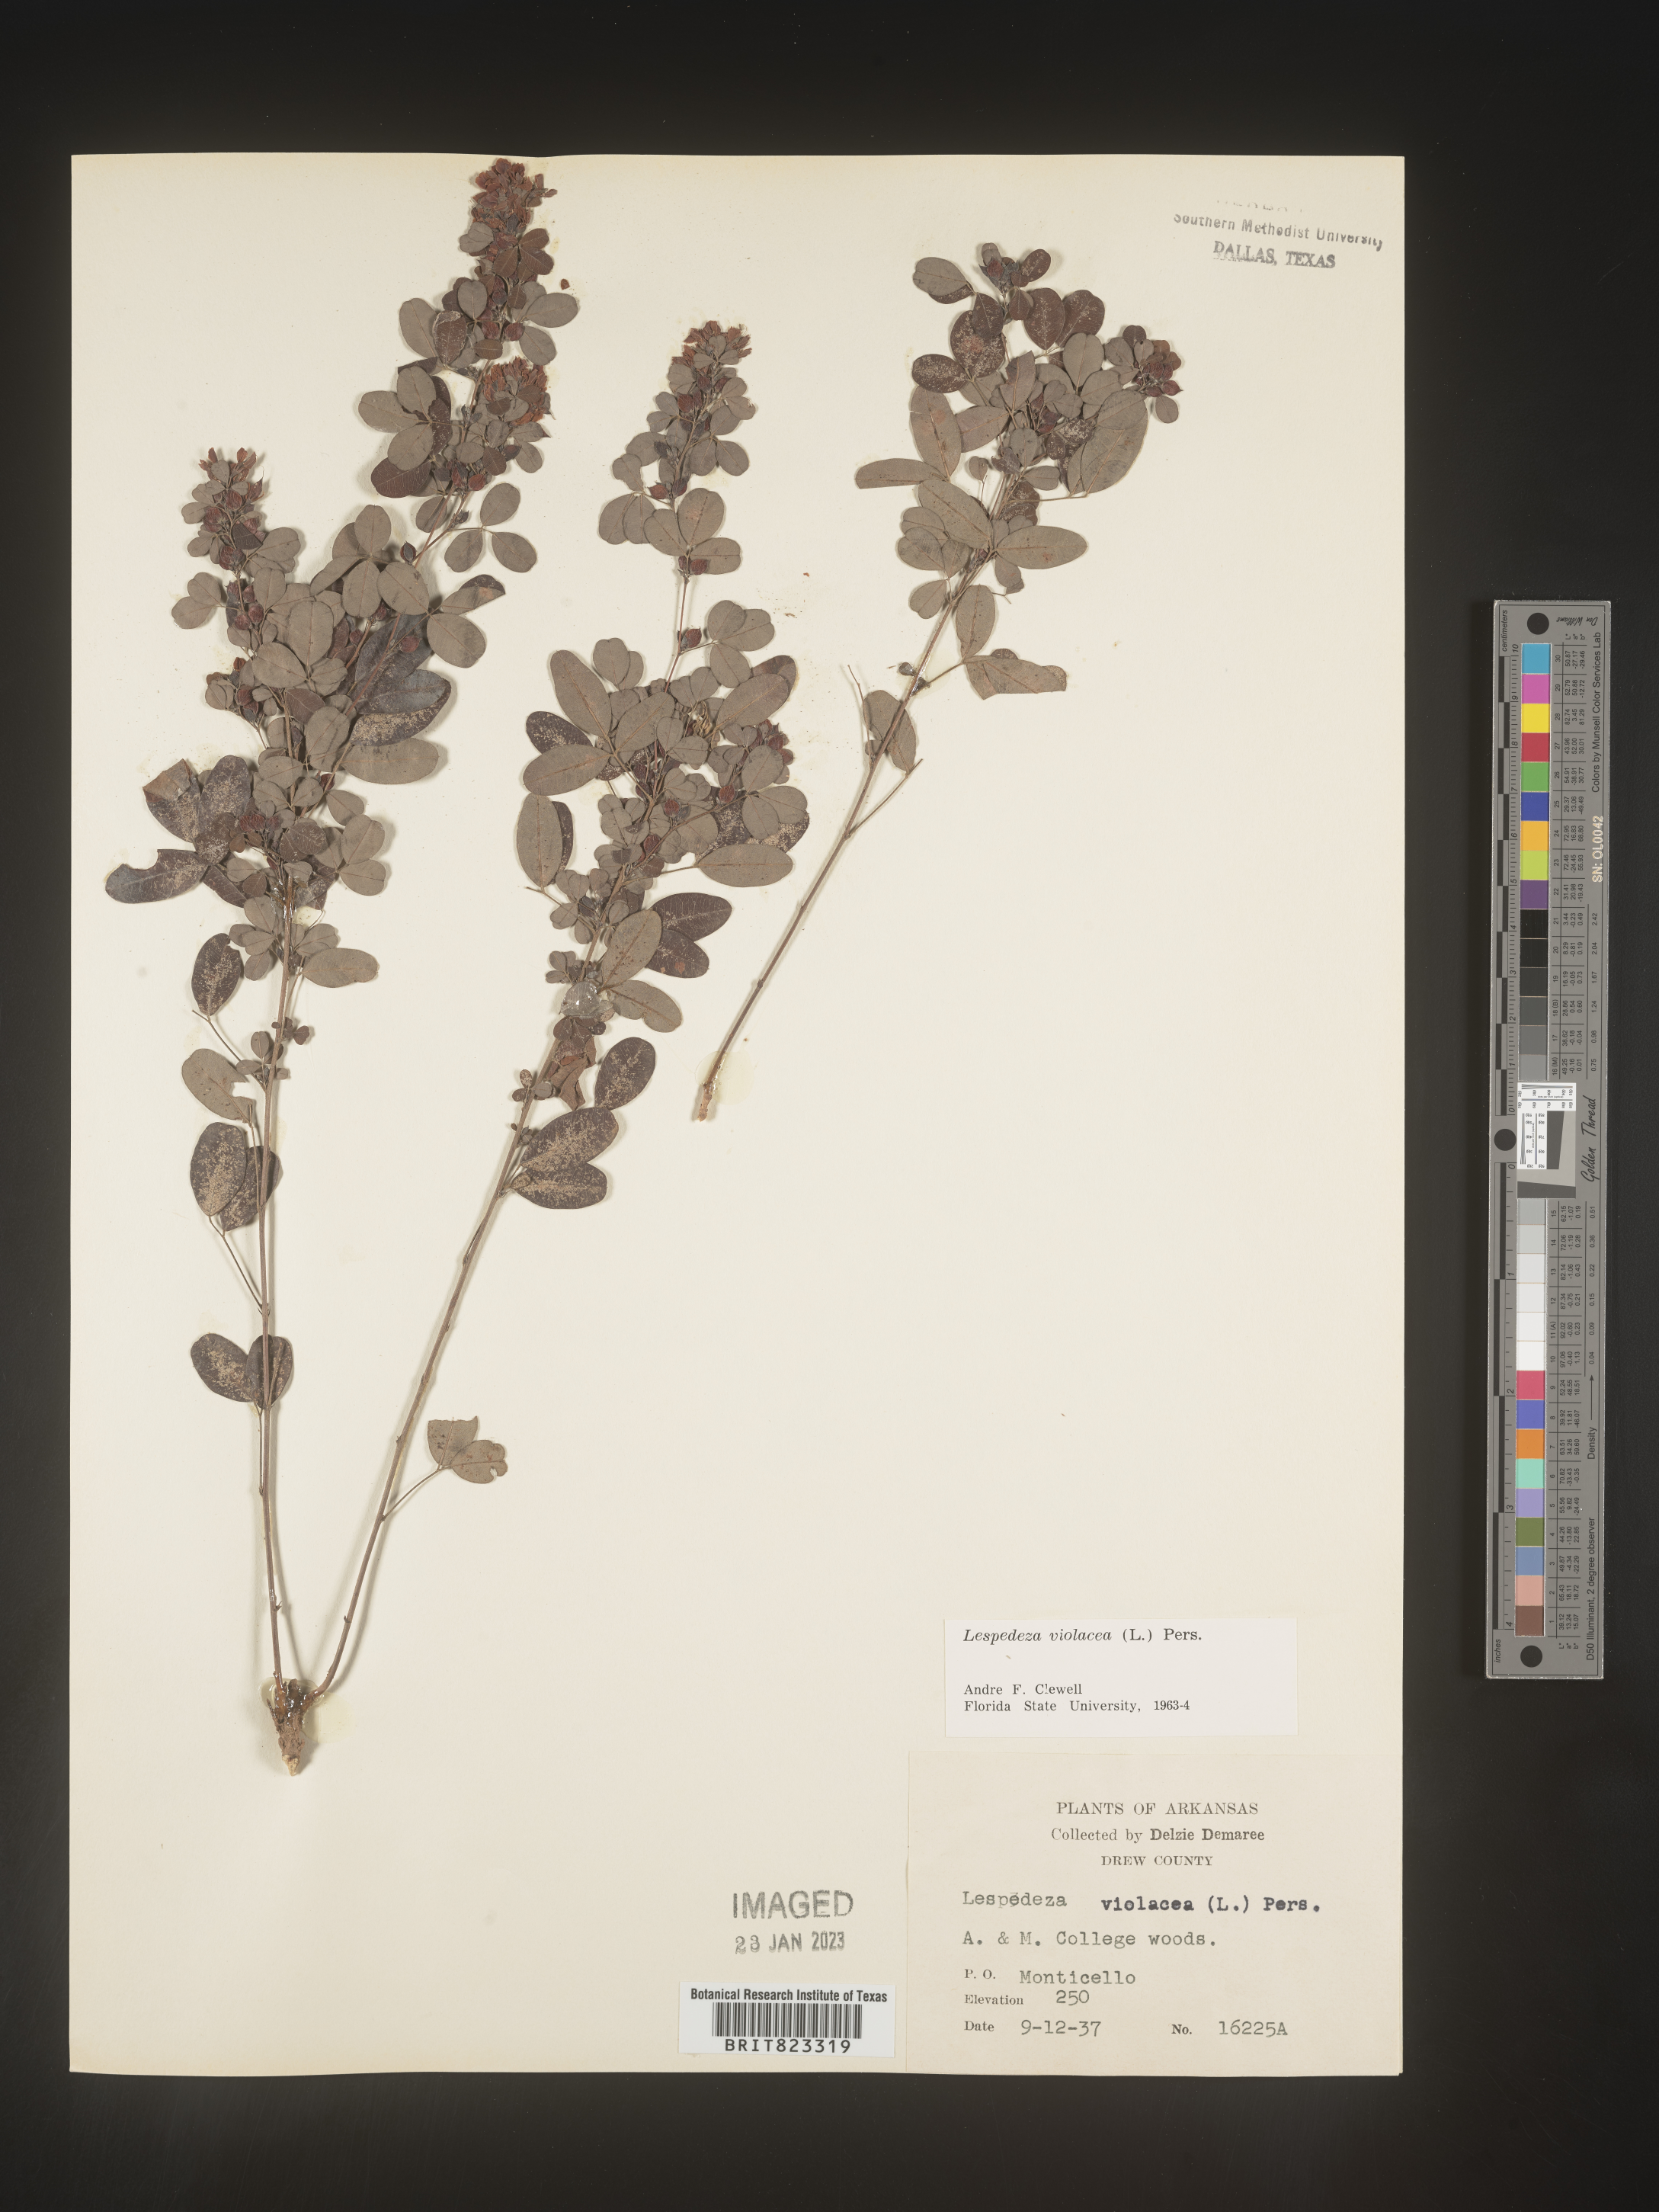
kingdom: Plantae
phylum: Tracheophyta
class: Magnoliopsida
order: Fabales
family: Fabaceae
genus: Lespedeza
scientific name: Lespedeza violacea
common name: Wand bush-clover
